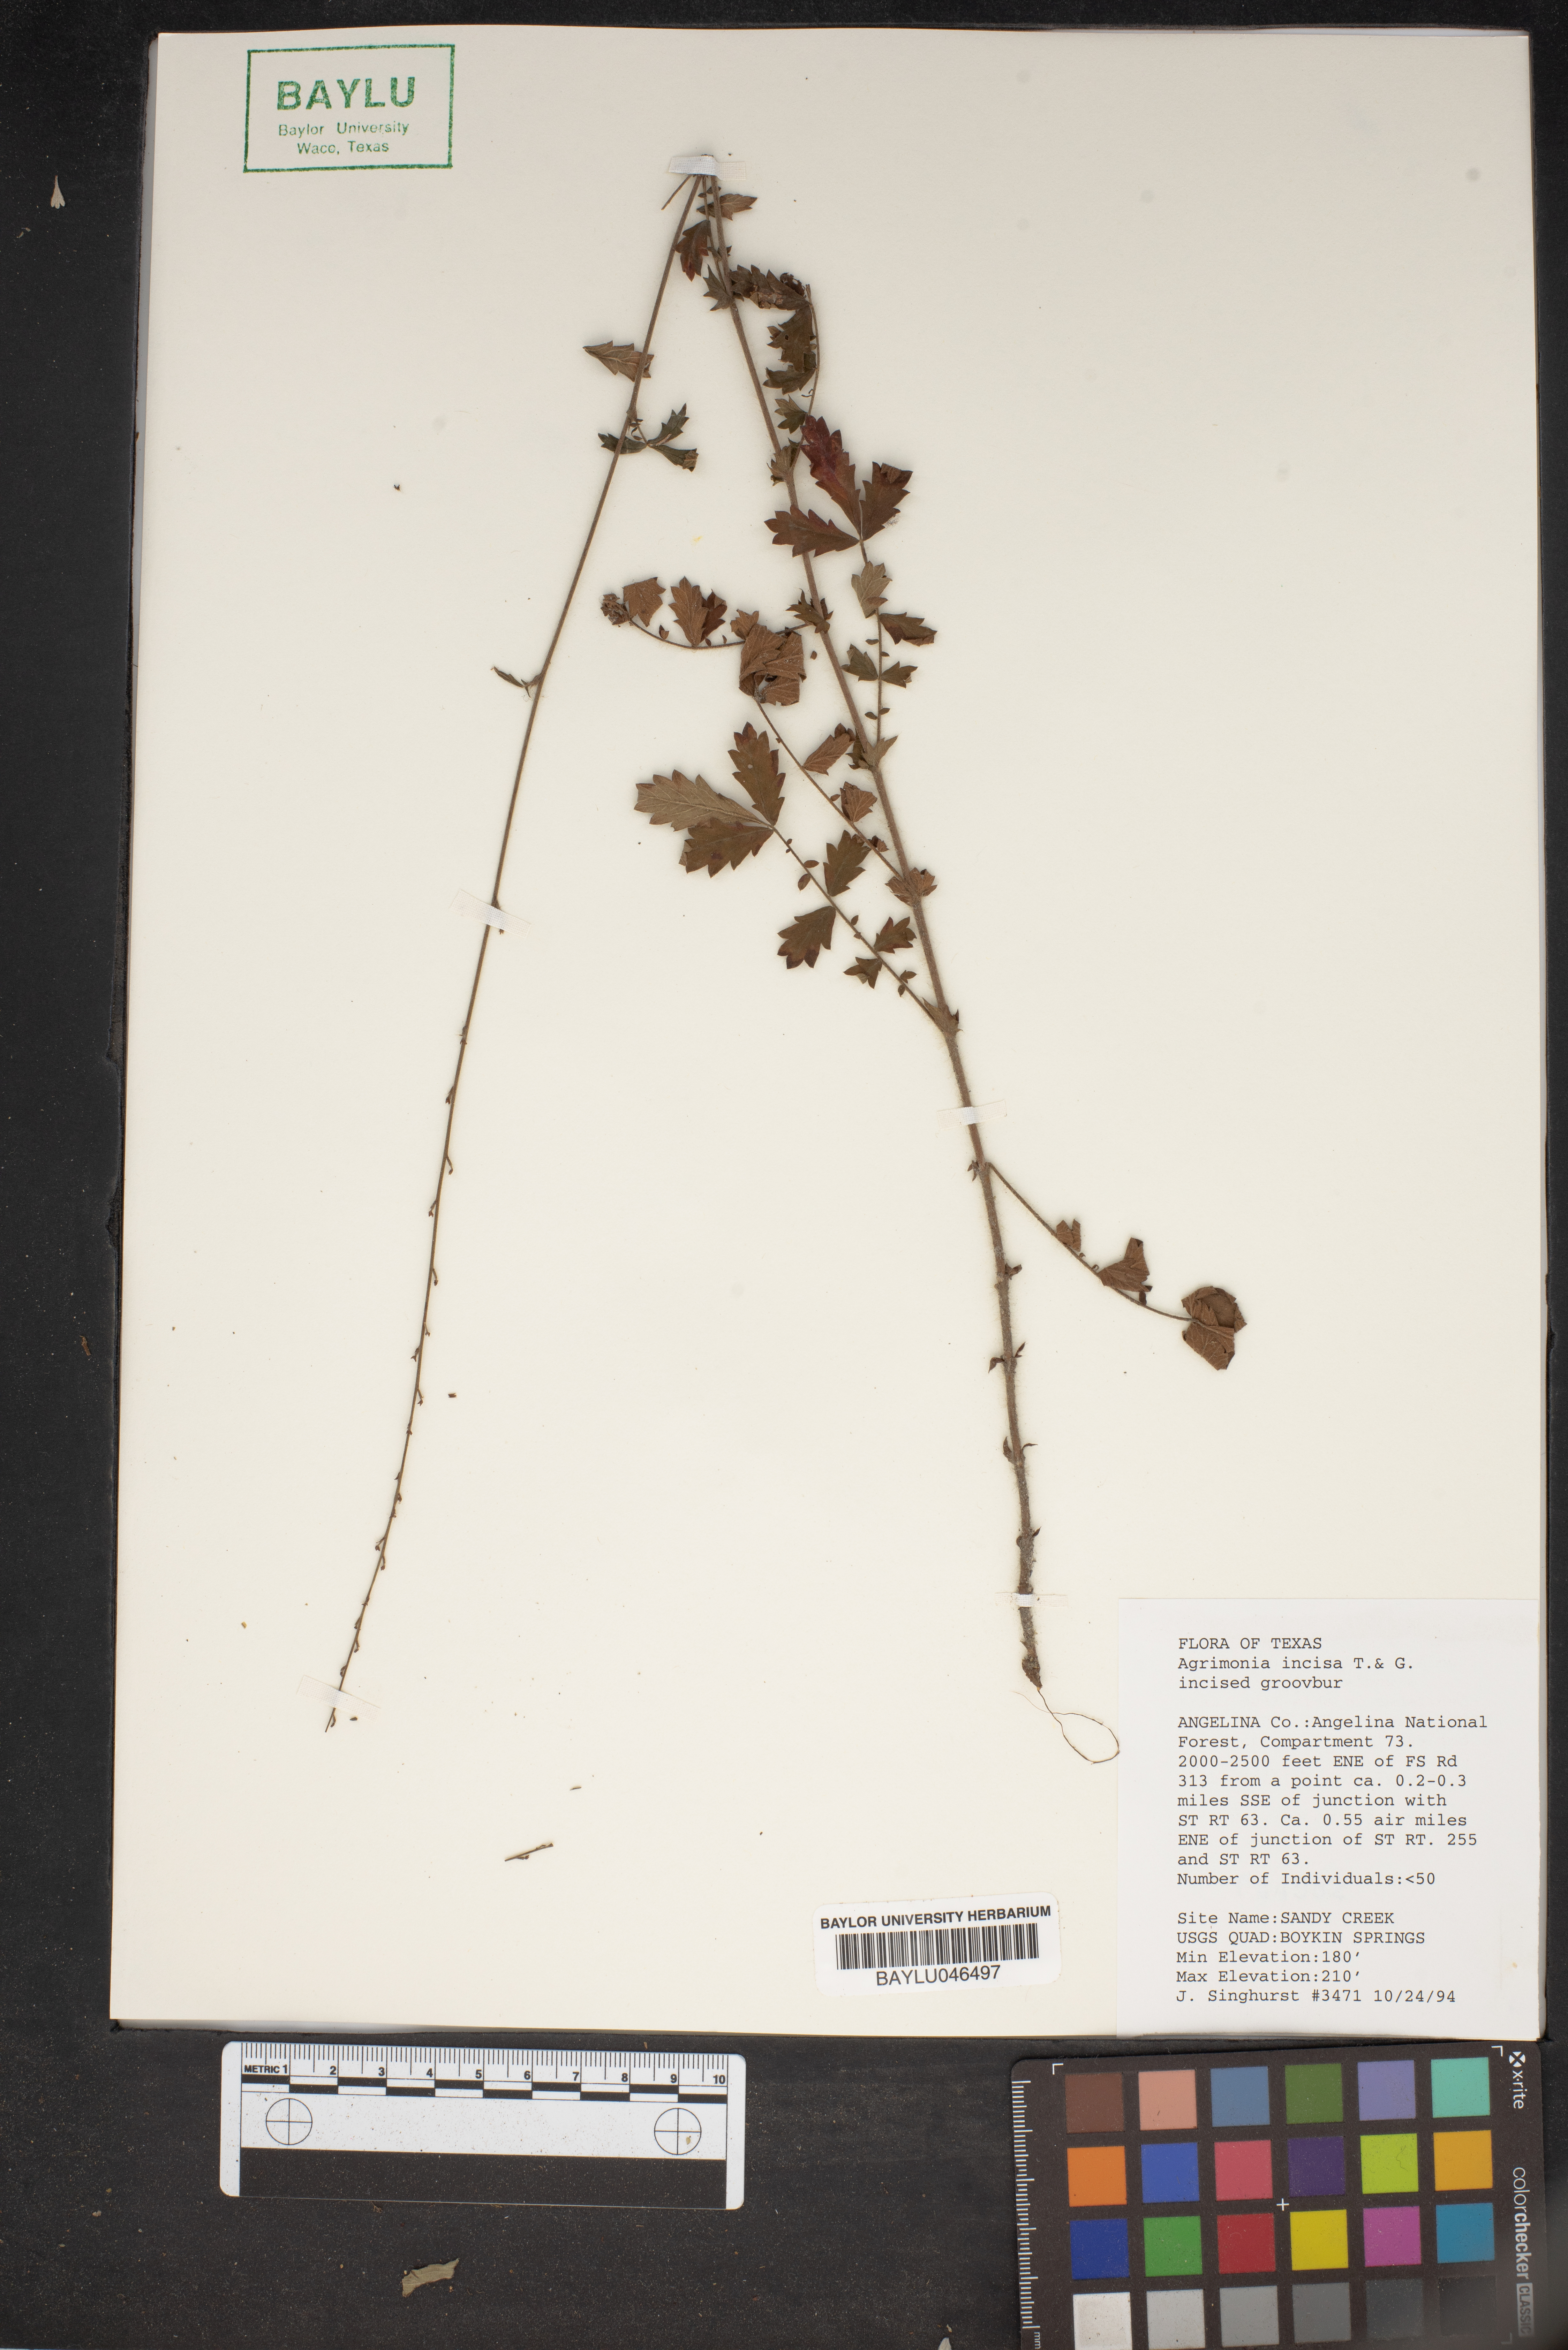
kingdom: Plantae
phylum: Tracheophyta
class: Magnoliopsida
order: Rosales
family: Rosaceae
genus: Agrimonia
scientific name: Agrimonia incisa
